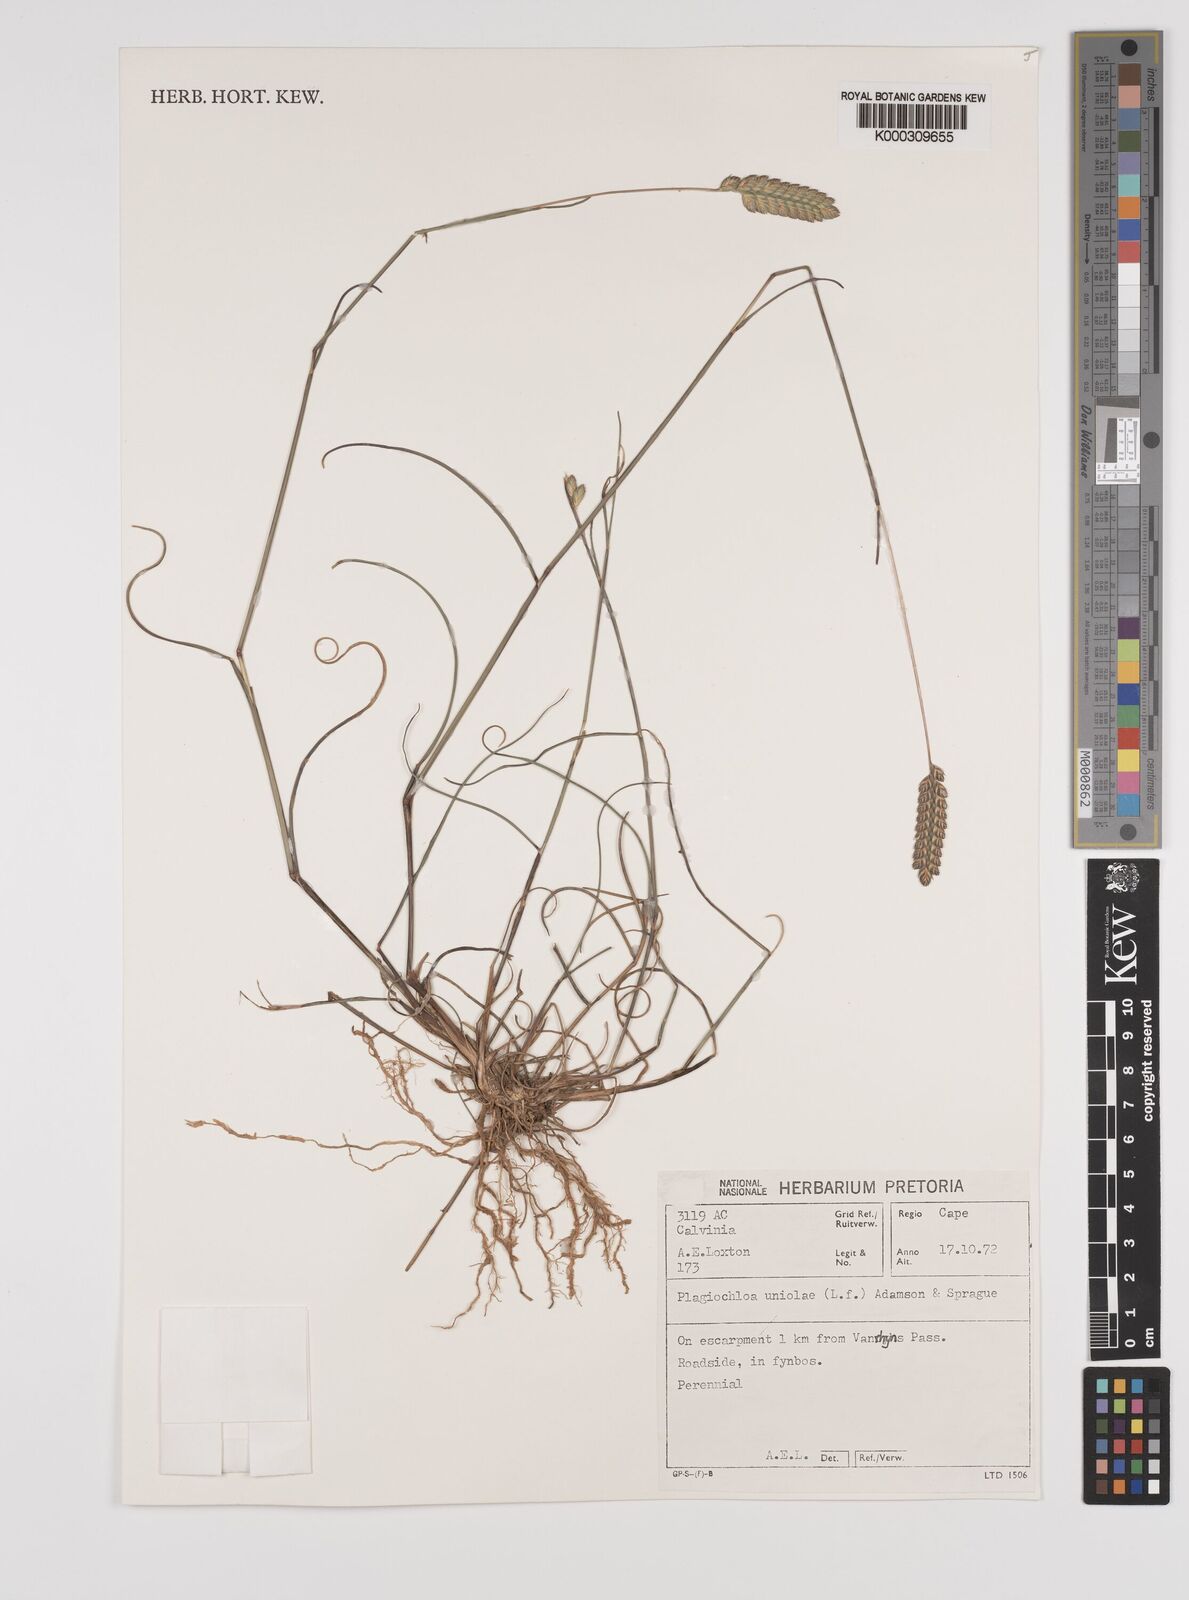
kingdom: Plantae
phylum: Tracheophyta
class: Liliopsida
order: Poales
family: Poaceae
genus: Tribolium
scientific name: Tribolium uniolae
